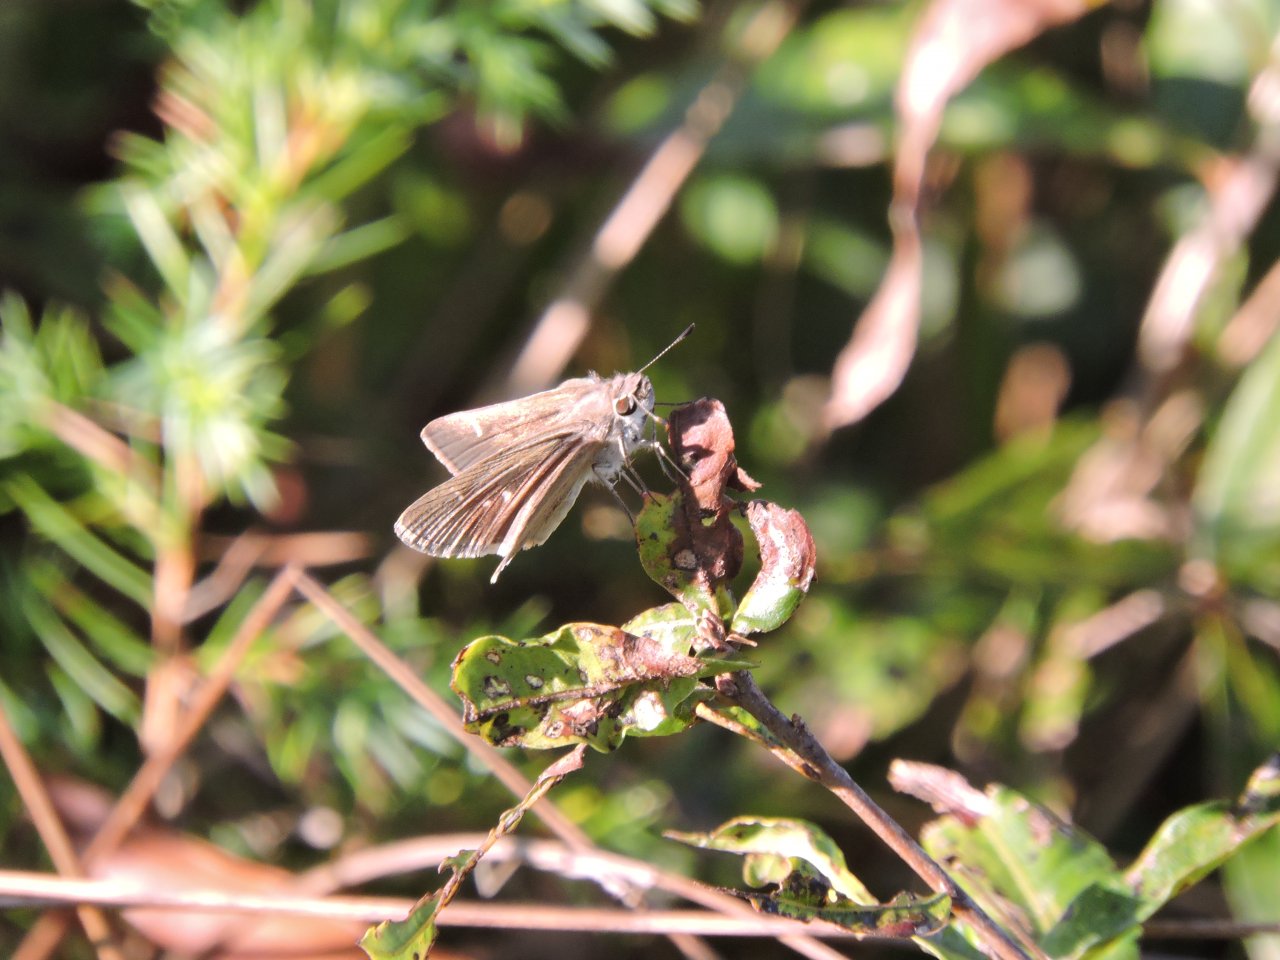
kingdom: Animalia
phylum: Arthropoda
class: Insecta
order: Lepidoptera
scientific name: Lepidoptera
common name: Butterflies
